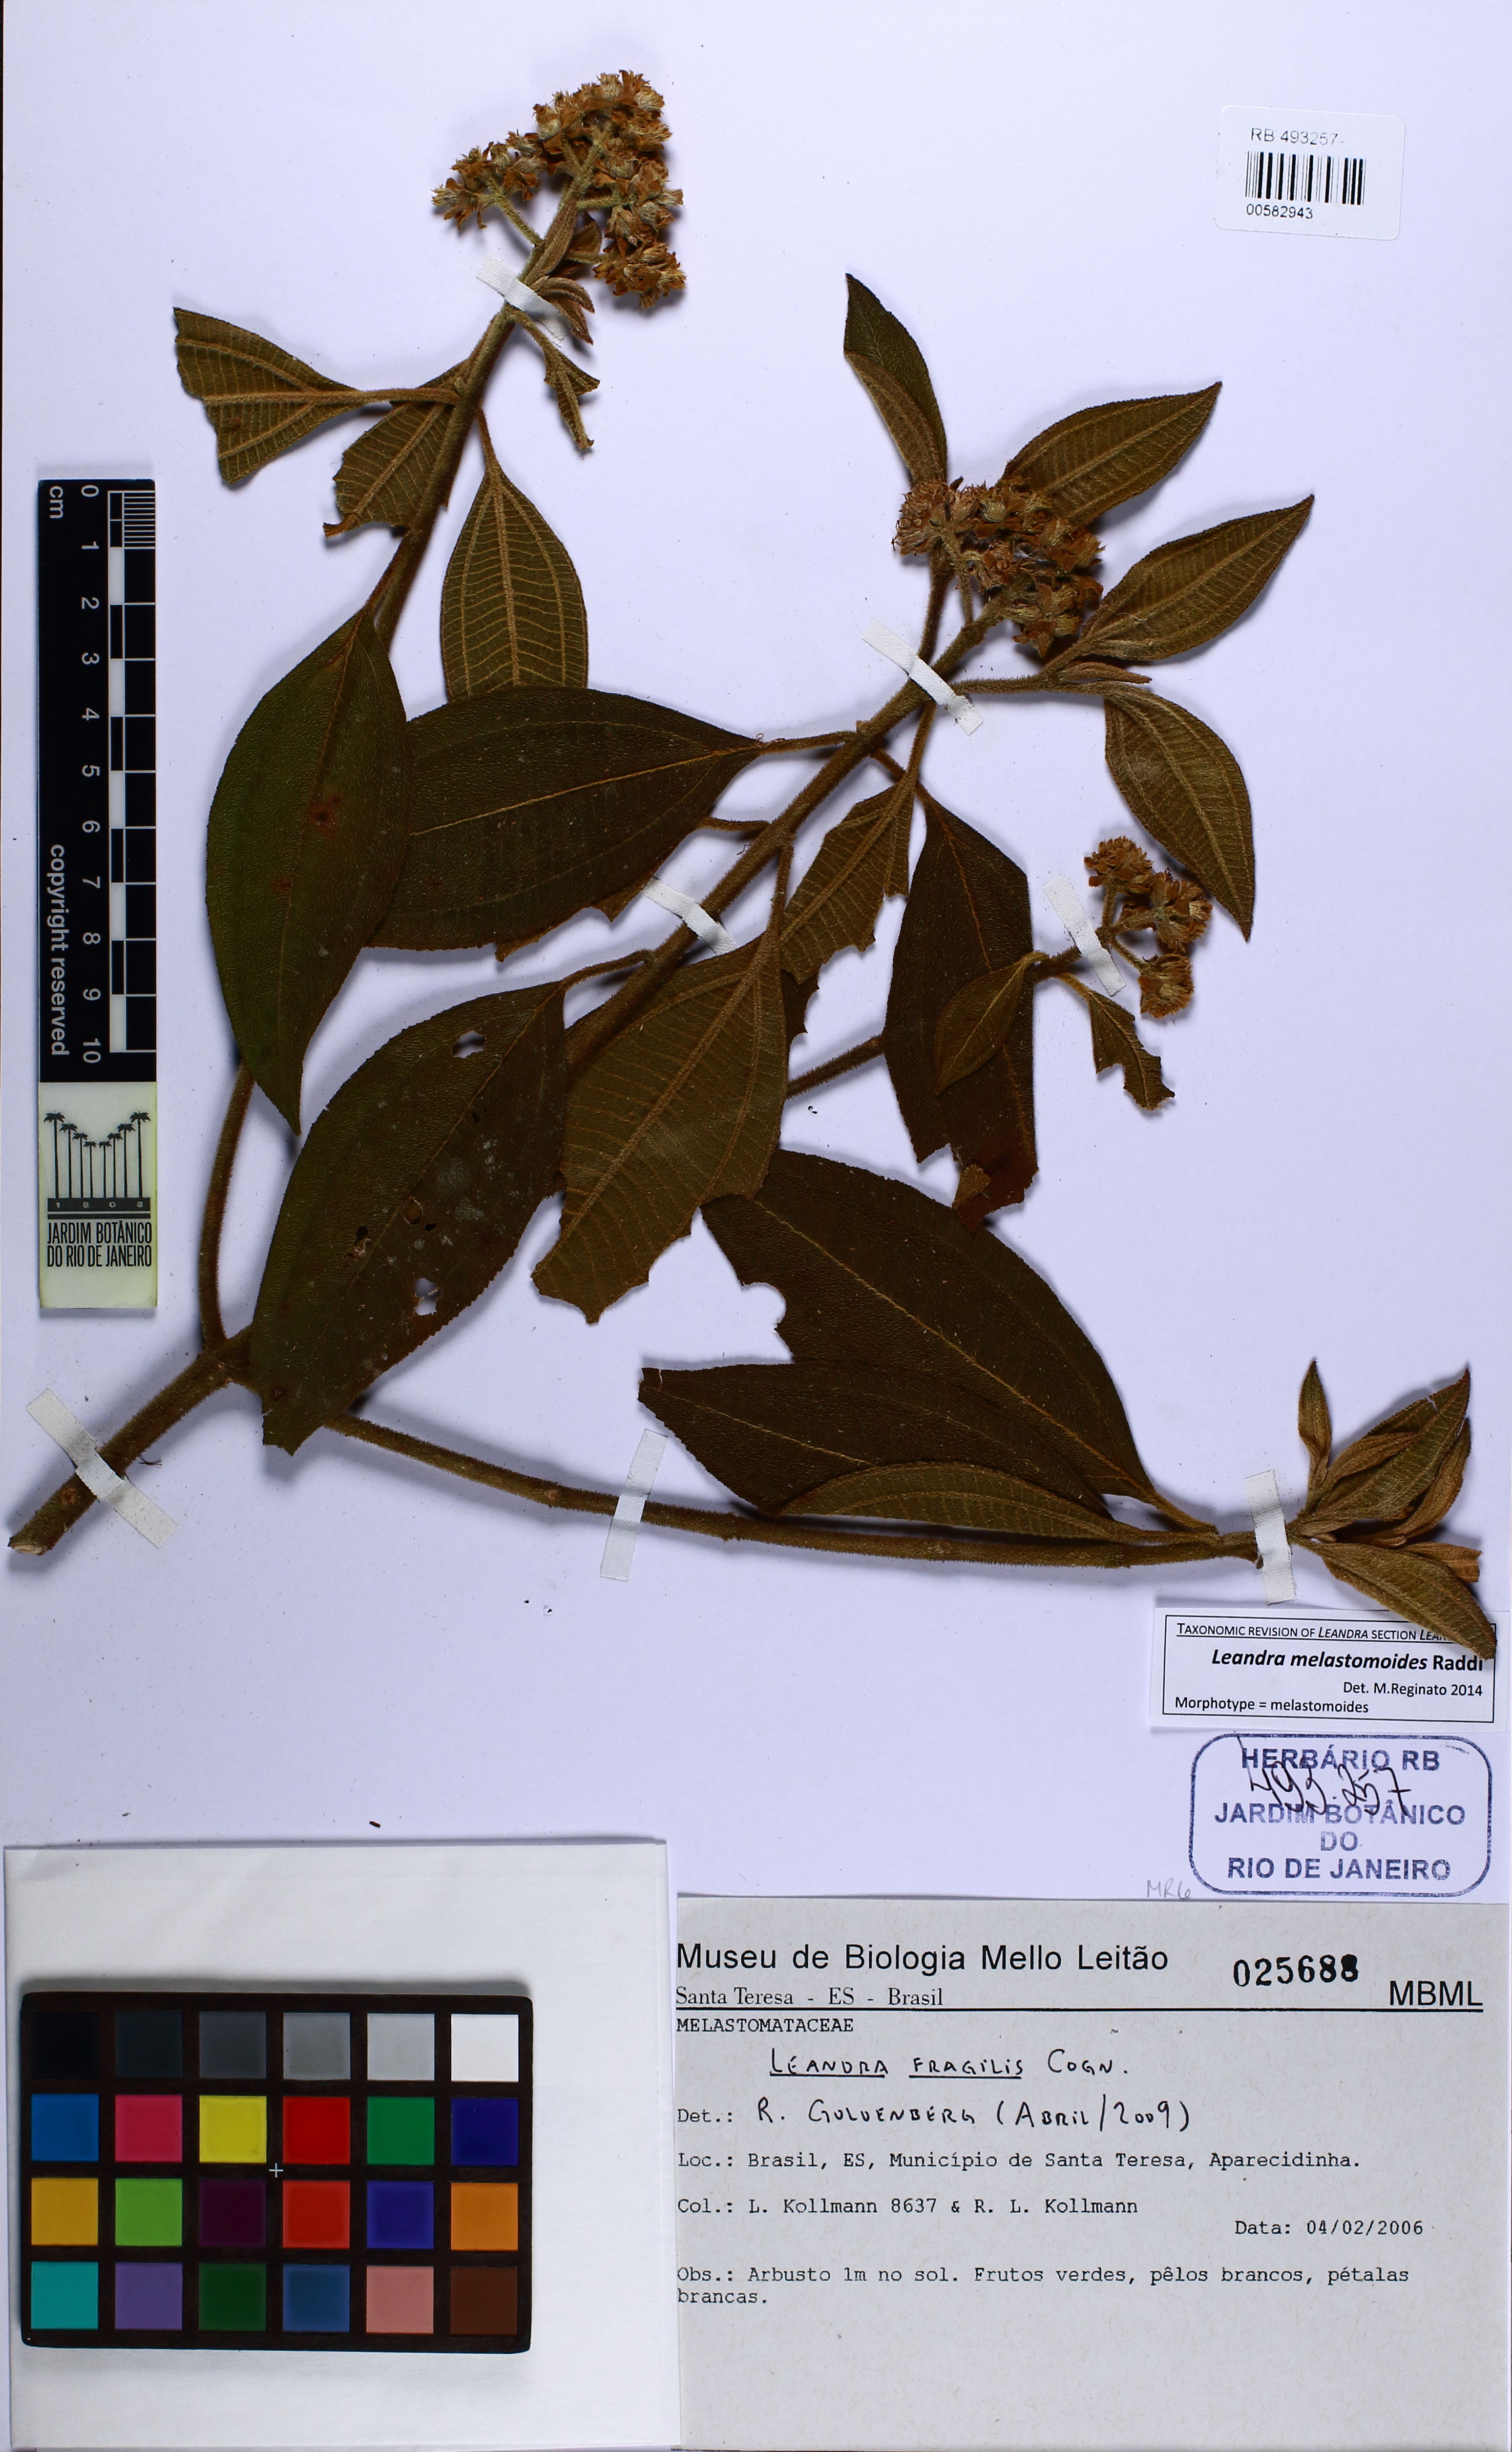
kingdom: Plantae
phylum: Tracheophyta
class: Magnoliopsida
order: Myrtales
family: Melastomataceae
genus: Miconia
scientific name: Miconia melastomoides
